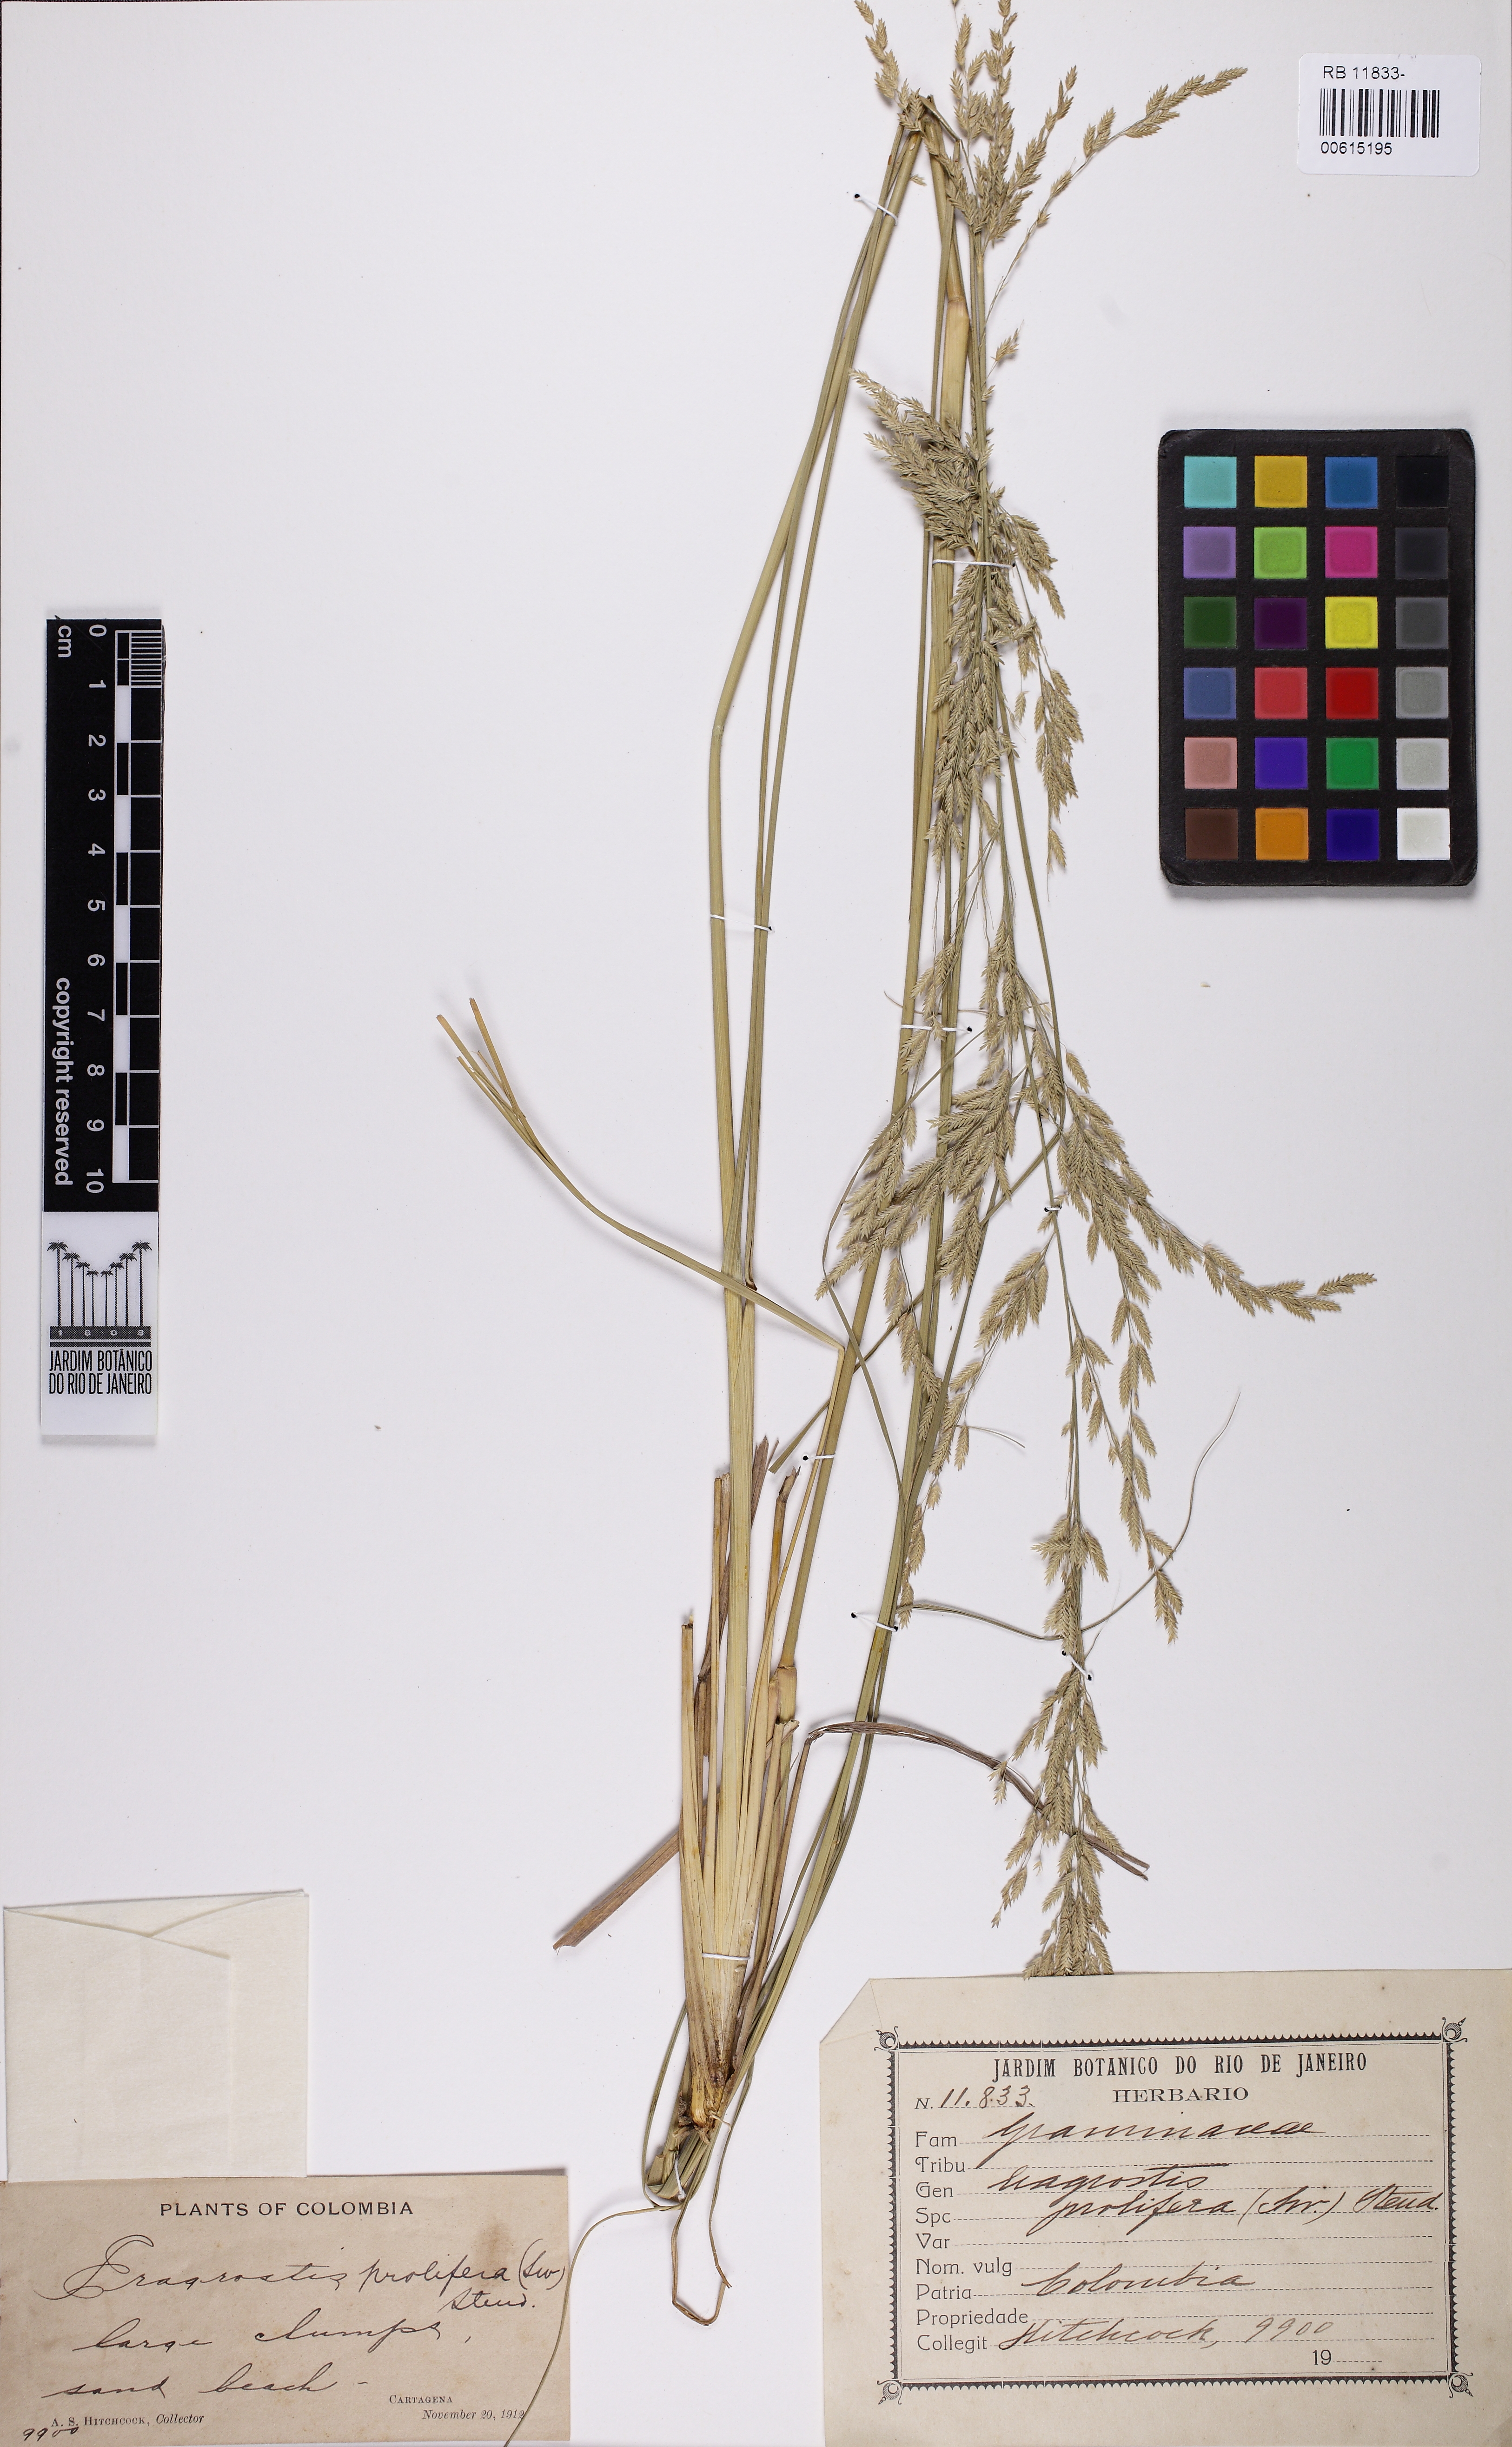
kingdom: Plantae
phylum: Tracheophyta
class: Liliopsida
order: Poales
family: Poaceae
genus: Eragrostis
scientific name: Eragrostis prolifera
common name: Dominican lovegrass
